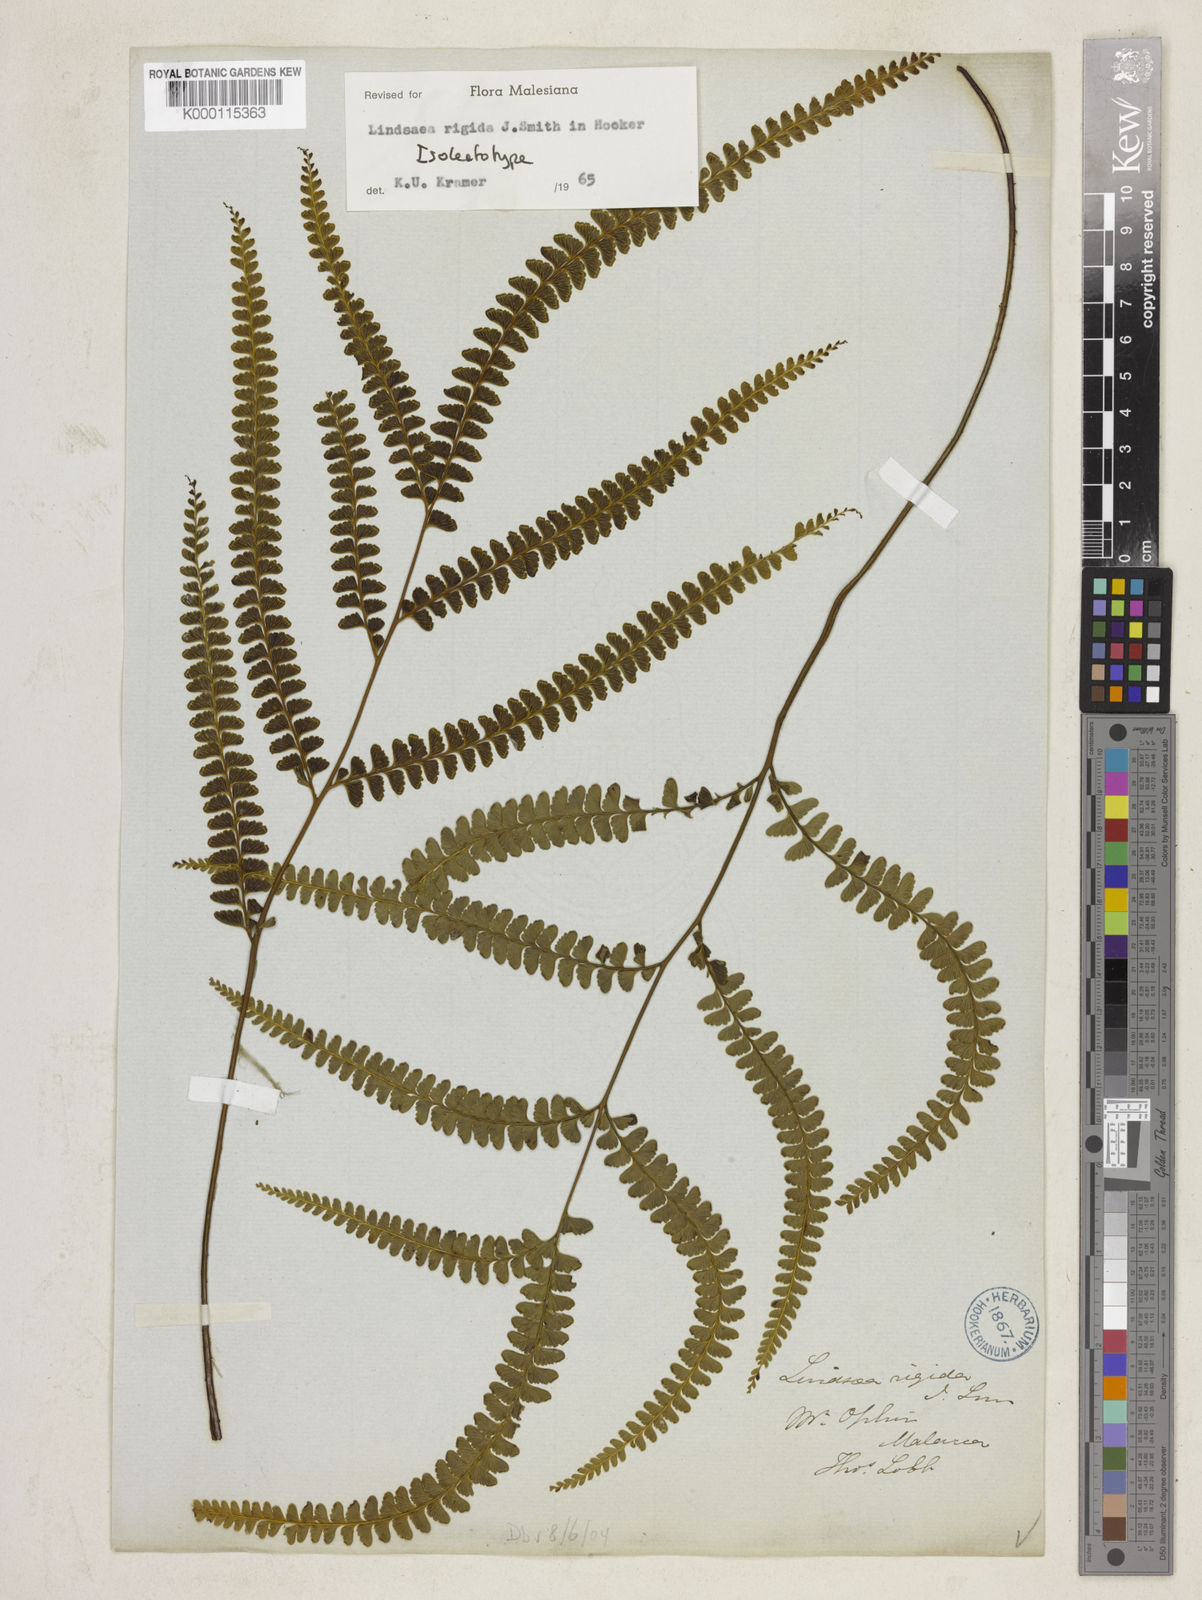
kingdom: Plantae
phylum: Tracheophyta
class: Polypodiopsida
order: Polypodiales
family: Lindsaeaceae
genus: Lindsaea
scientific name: Lindsaea rigida
